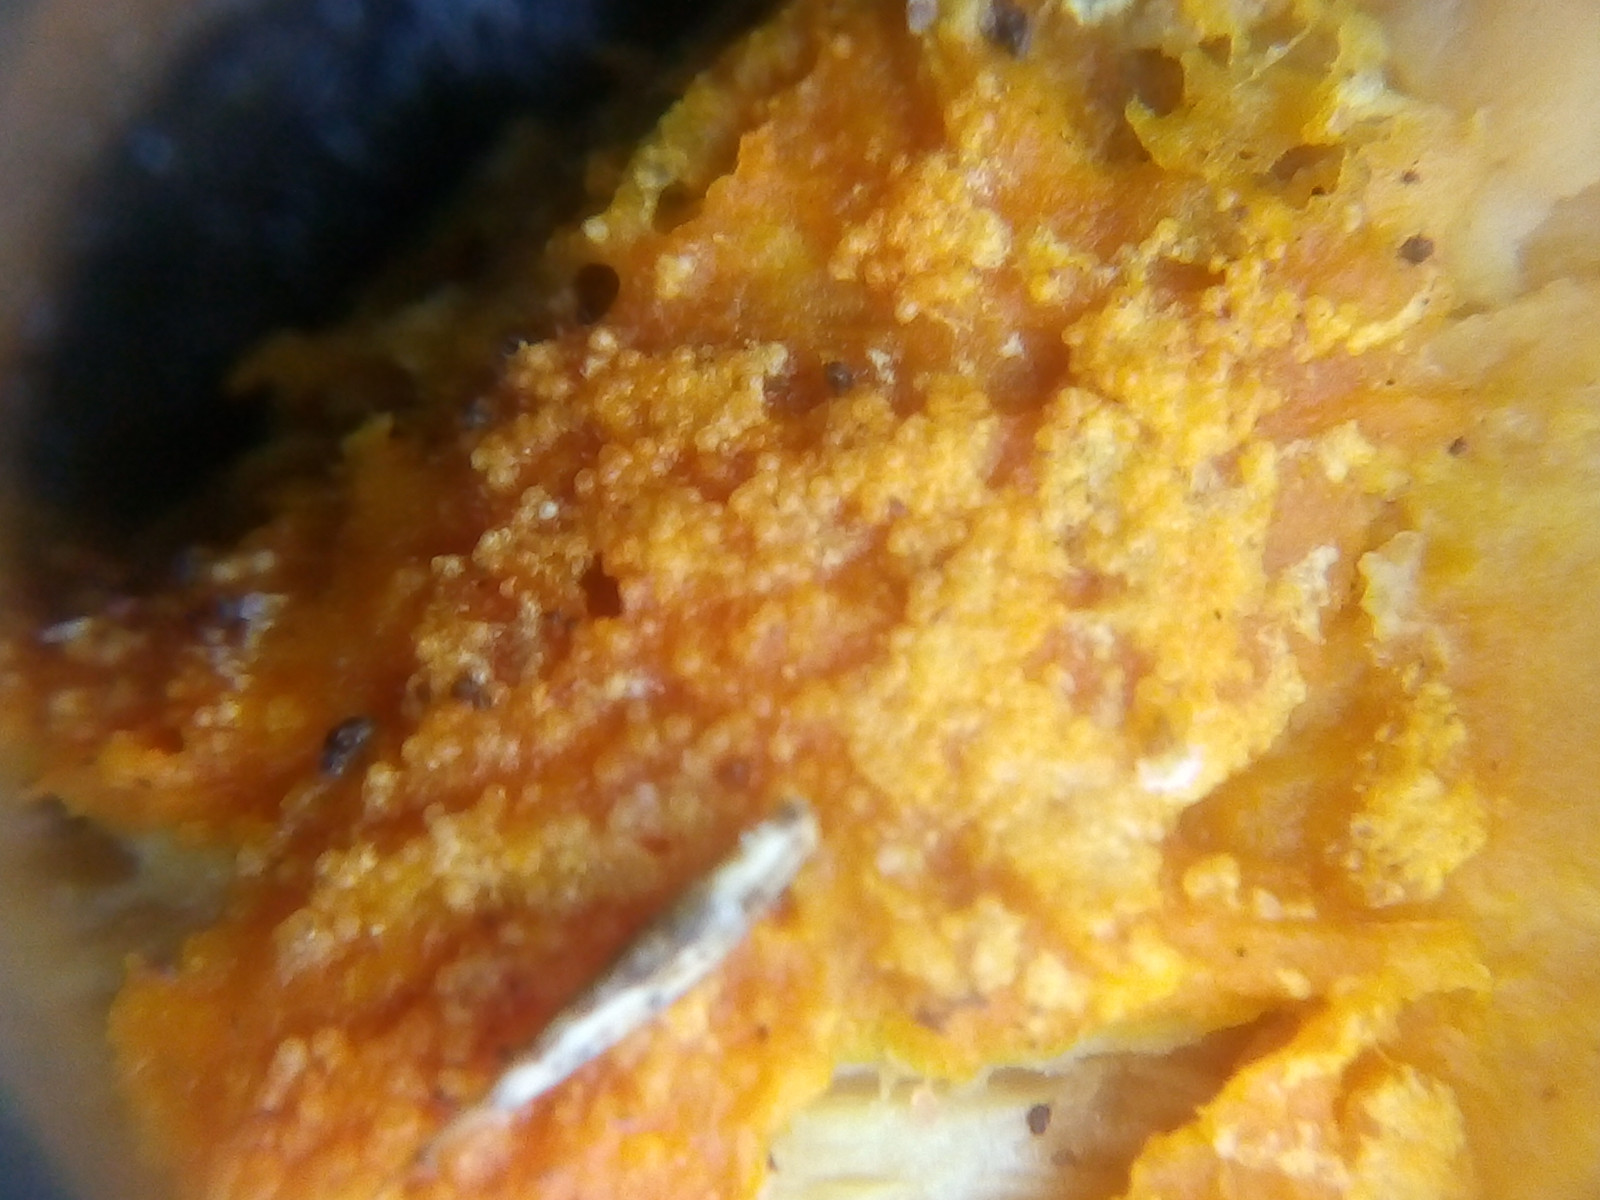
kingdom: Fungi
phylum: Ascomycota
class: Sordariomycetes
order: Hypocreales
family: Hypocreaceae
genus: Hypomyces
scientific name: Hypomyces aurantius
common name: almindelig snylteskorpe
